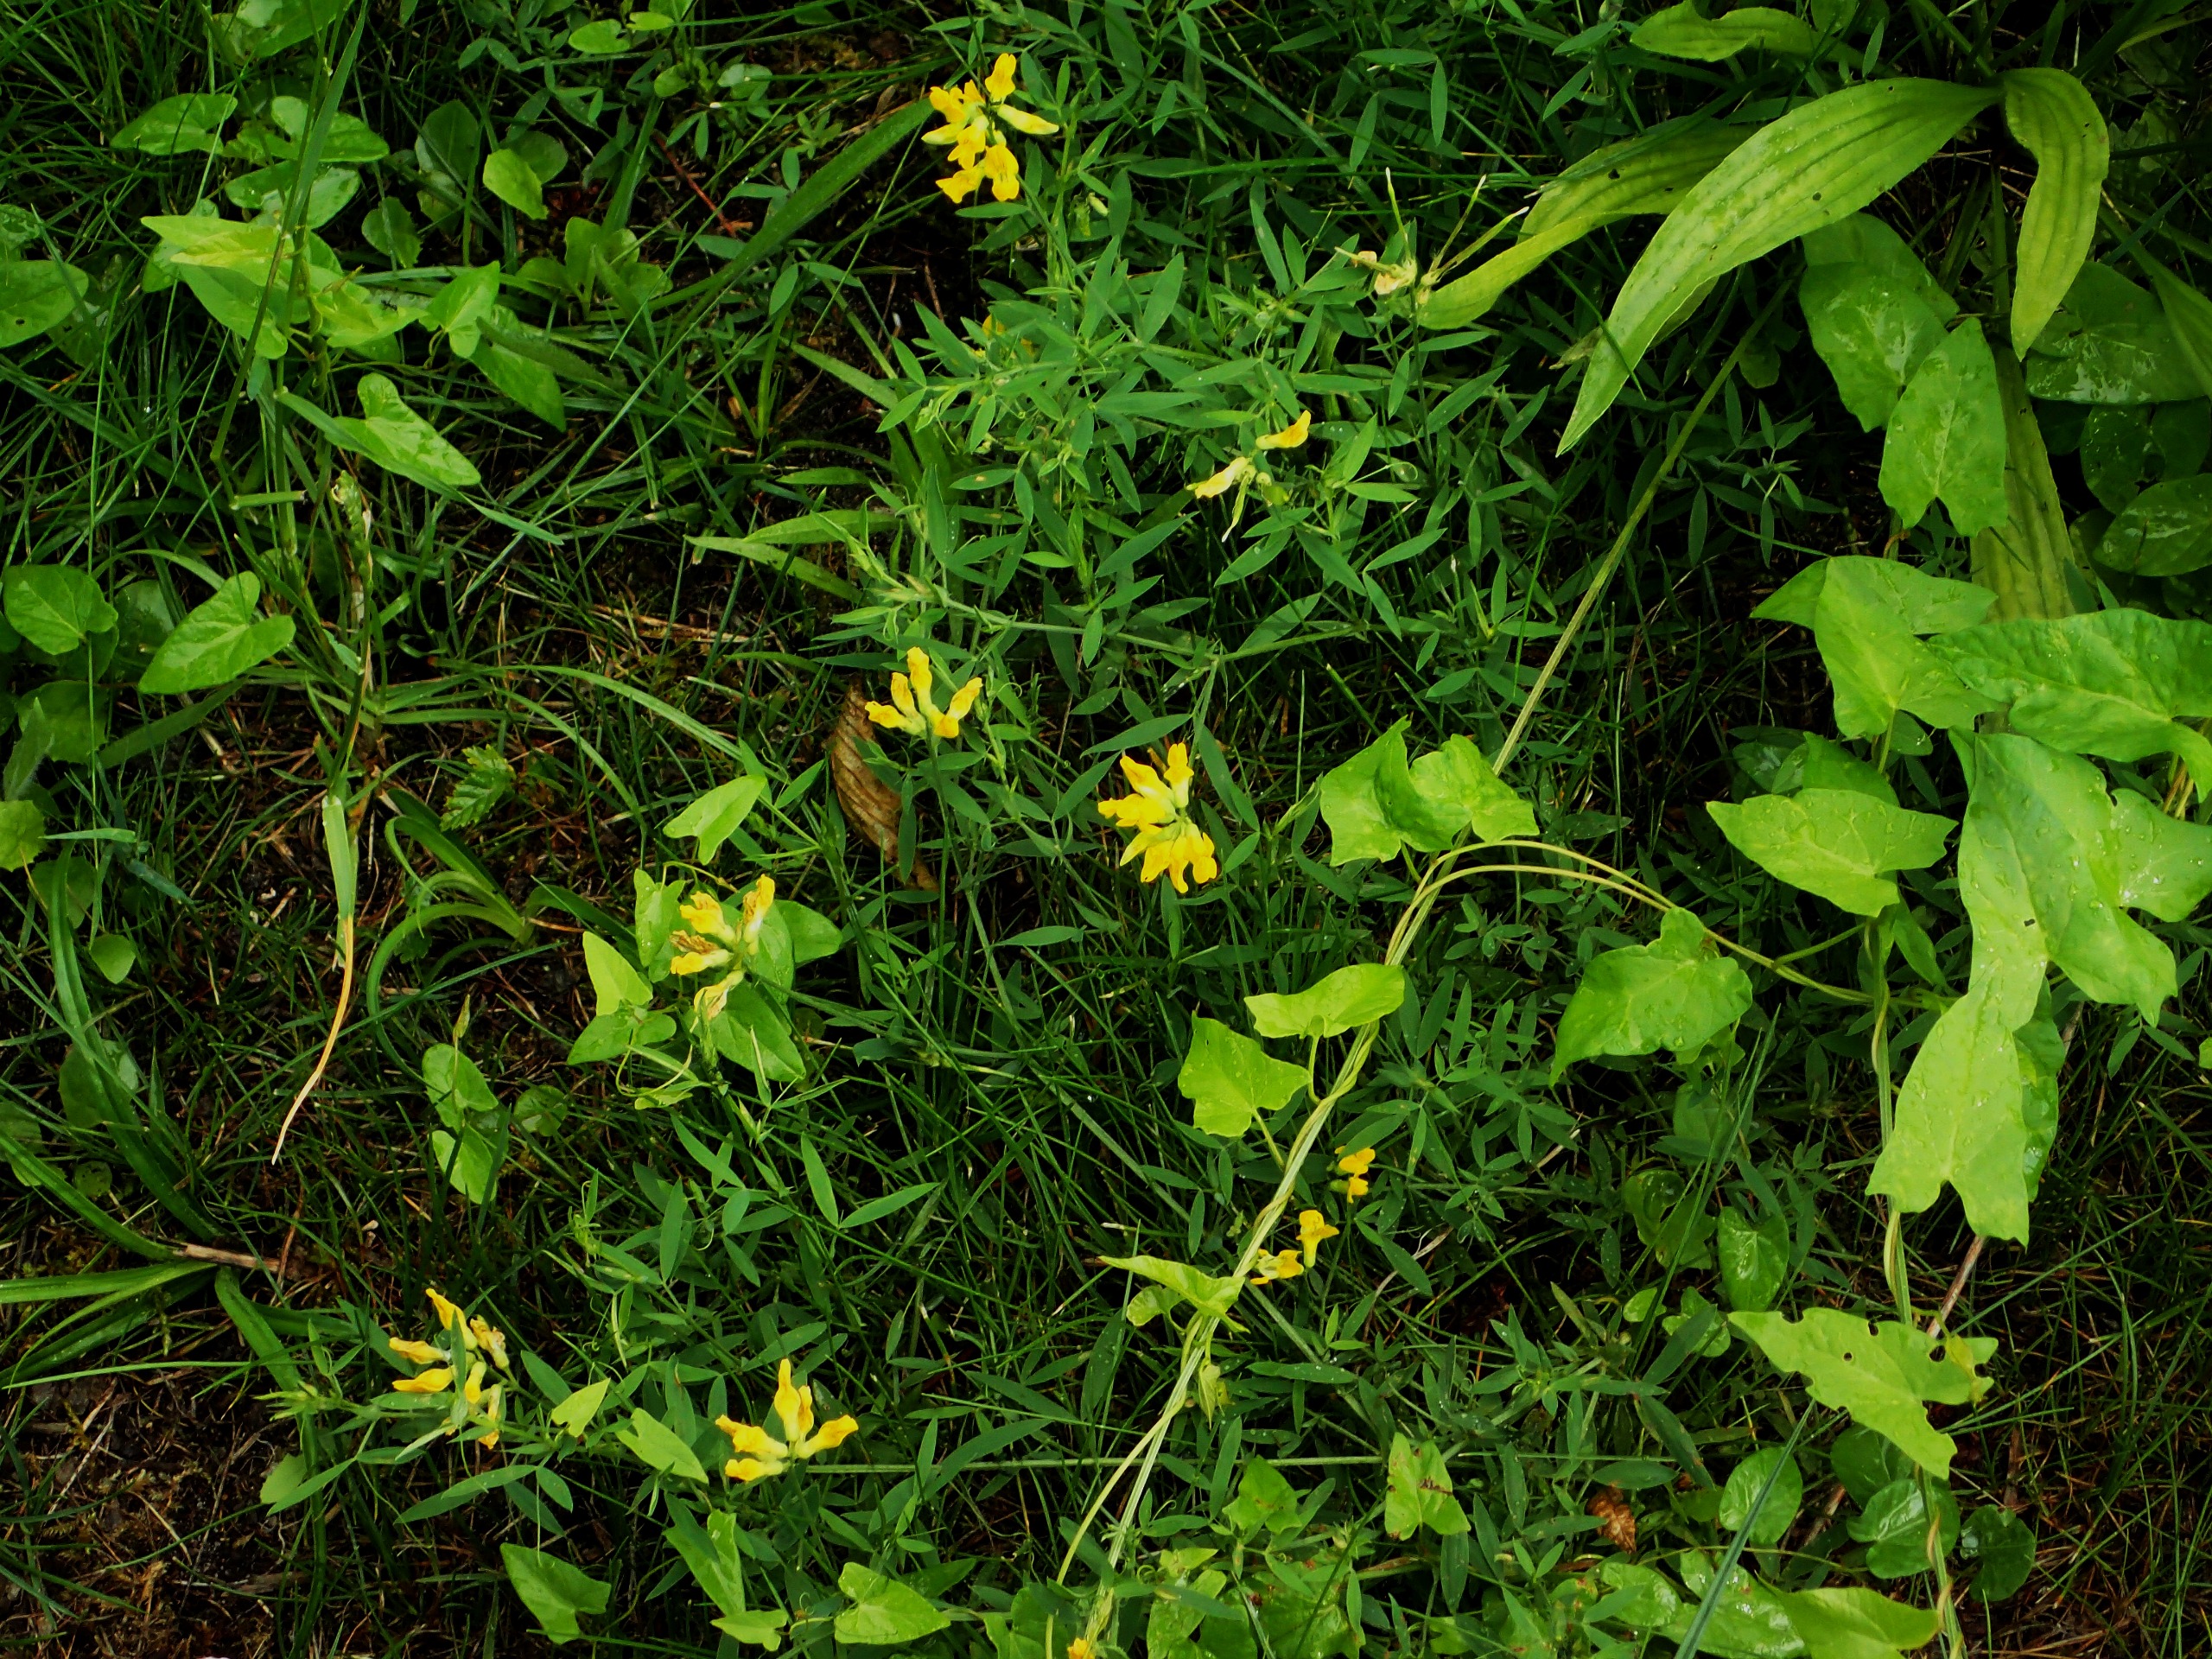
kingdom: Plantae
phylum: Tracheophyta
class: Magnoliopsida
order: Fabales
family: Fabaceae
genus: Lathyrus
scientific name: Lathyrus pratensis
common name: Gul fladbælg
